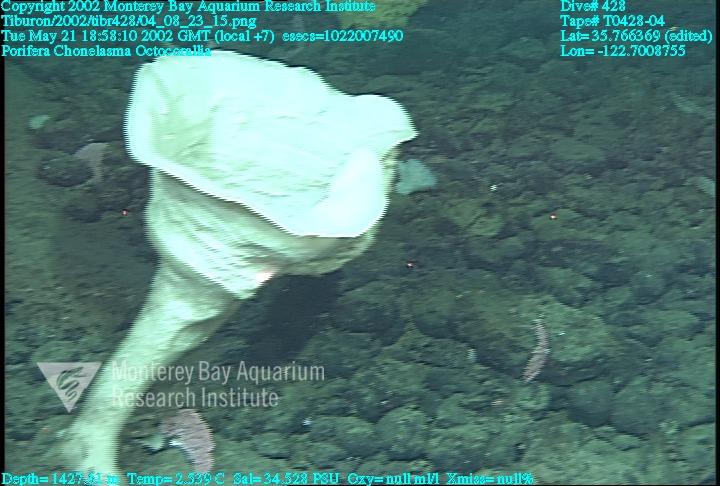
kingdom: Animalia
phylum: Porifera
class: Hexactinellida
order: Sceptrulophora
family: Euretidae
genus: Chonelasma
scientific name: Chonelasma
